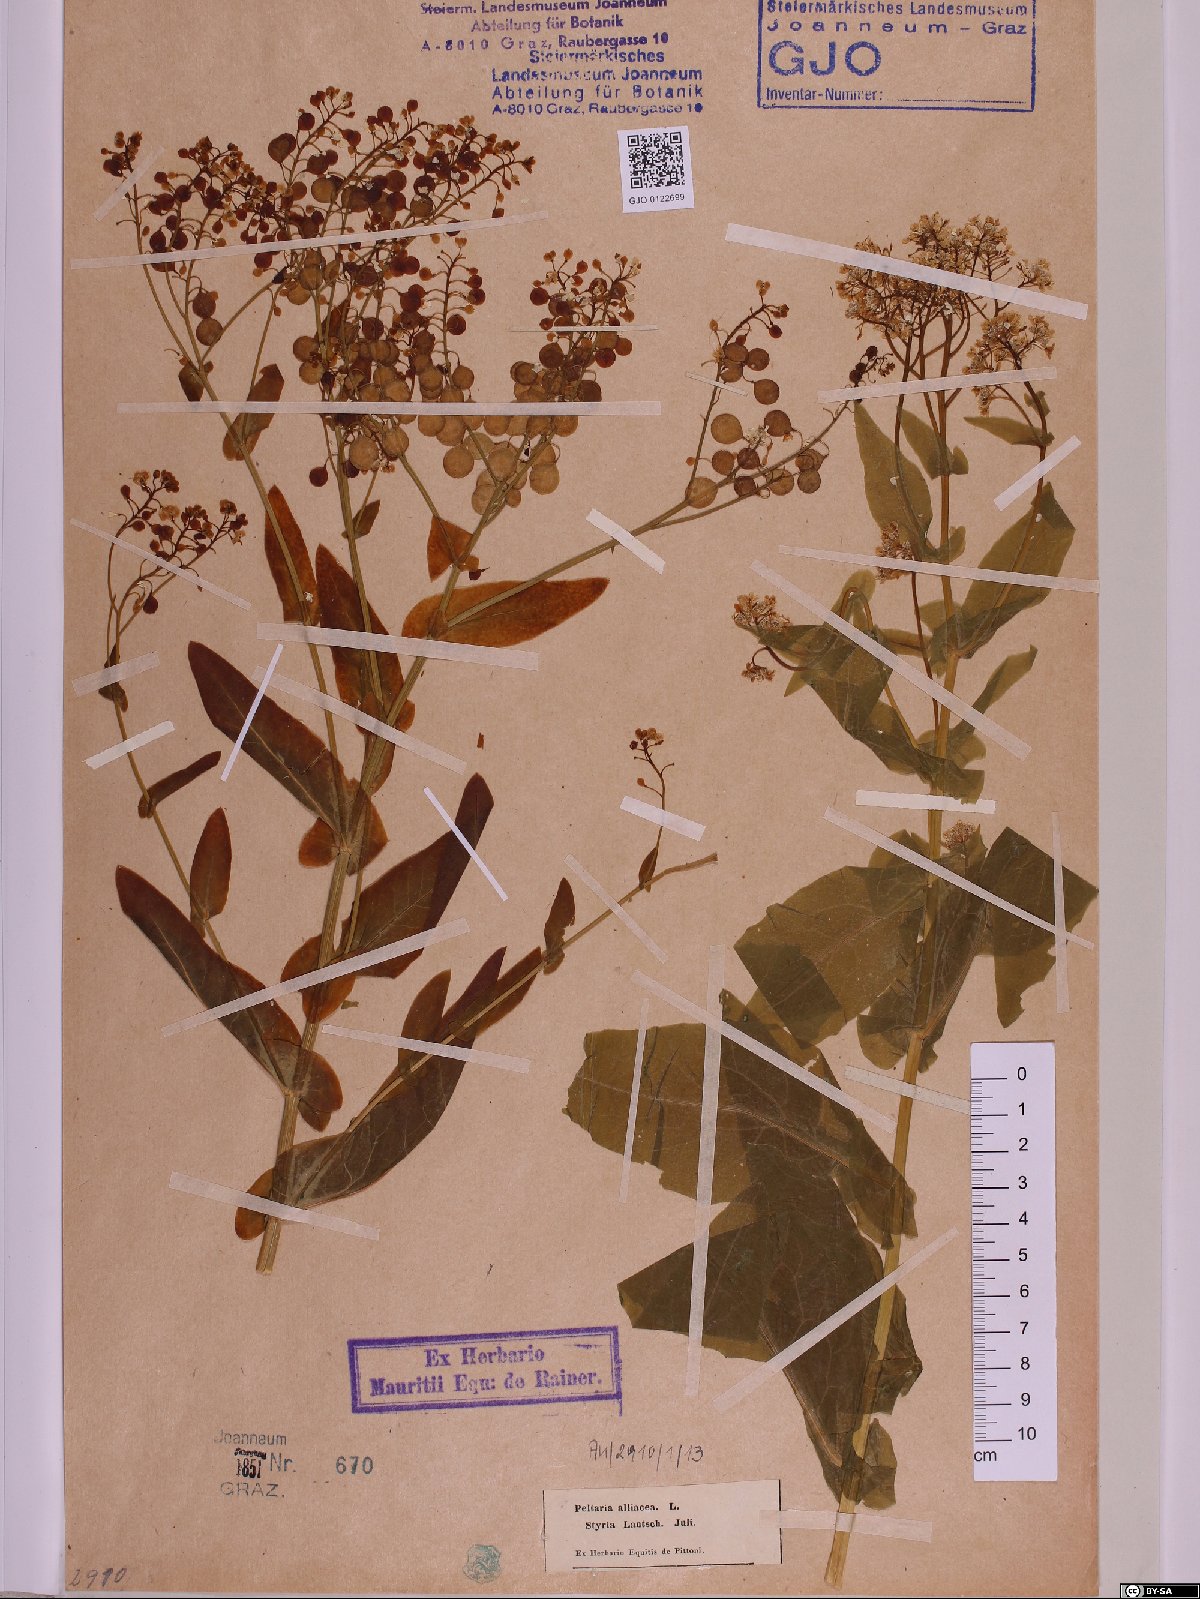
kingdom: Plantae
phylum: Tracheophyta
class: Magnoliopsida
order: Brassicales
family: Brassicaceae
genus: Peltaria
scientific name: Peltaria alliacea
